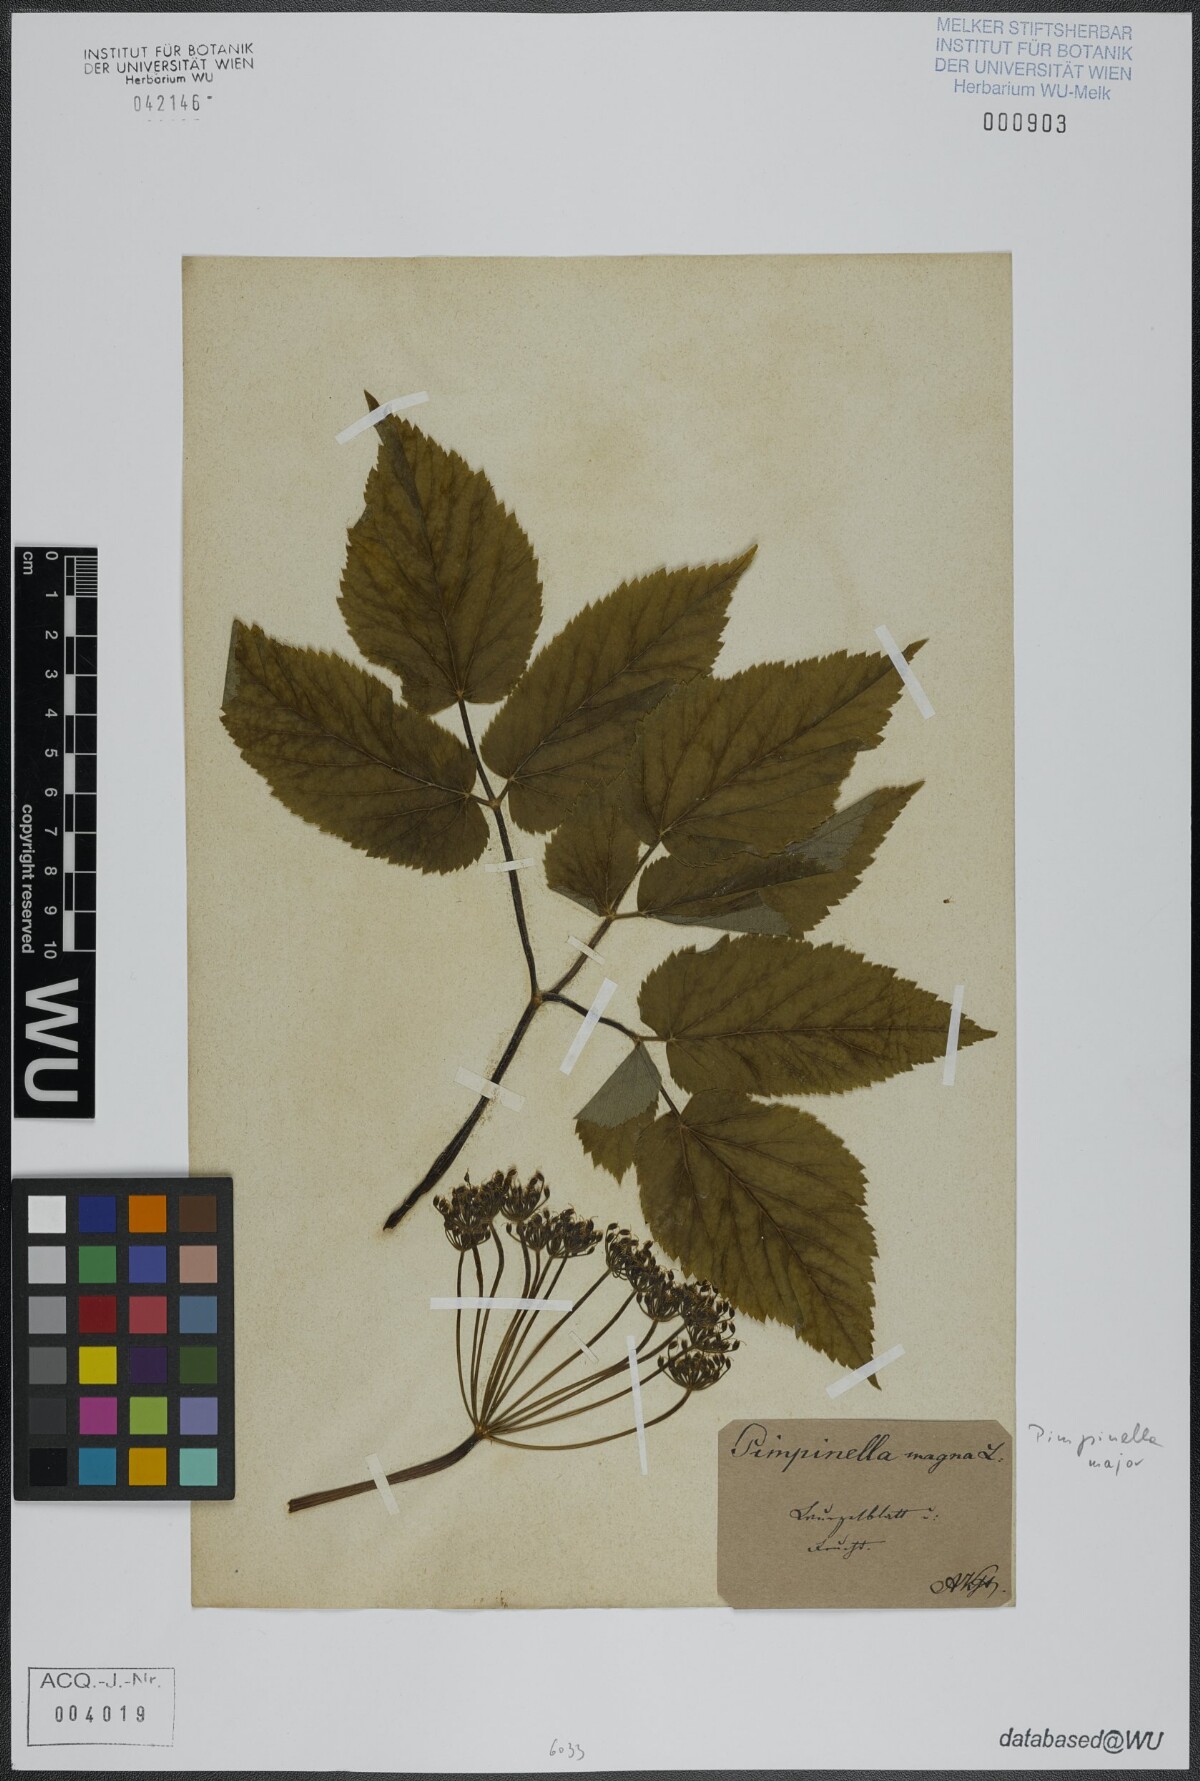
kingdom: Plantae
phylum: Tracheophyta
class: Magnoliopsida
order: Apiales
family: Apiaceae
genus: Pimpinella
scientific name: Pimpinella major
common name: Greater burnet-saxifrage
